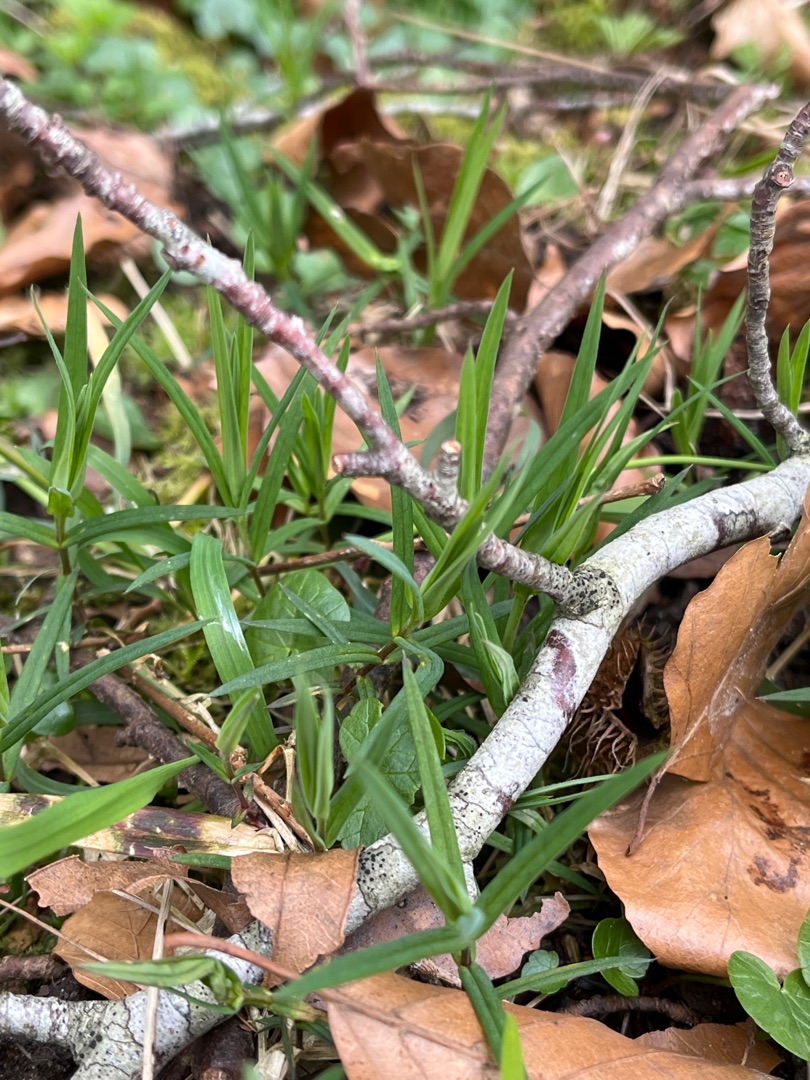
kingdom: Plantae
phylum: Tracheophyta
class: Magnoliopsida
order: Caryophyllales
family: Caryophyllaceae
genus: Rabelera
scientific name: Rabelera holostea
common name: Stor fladstjerne
